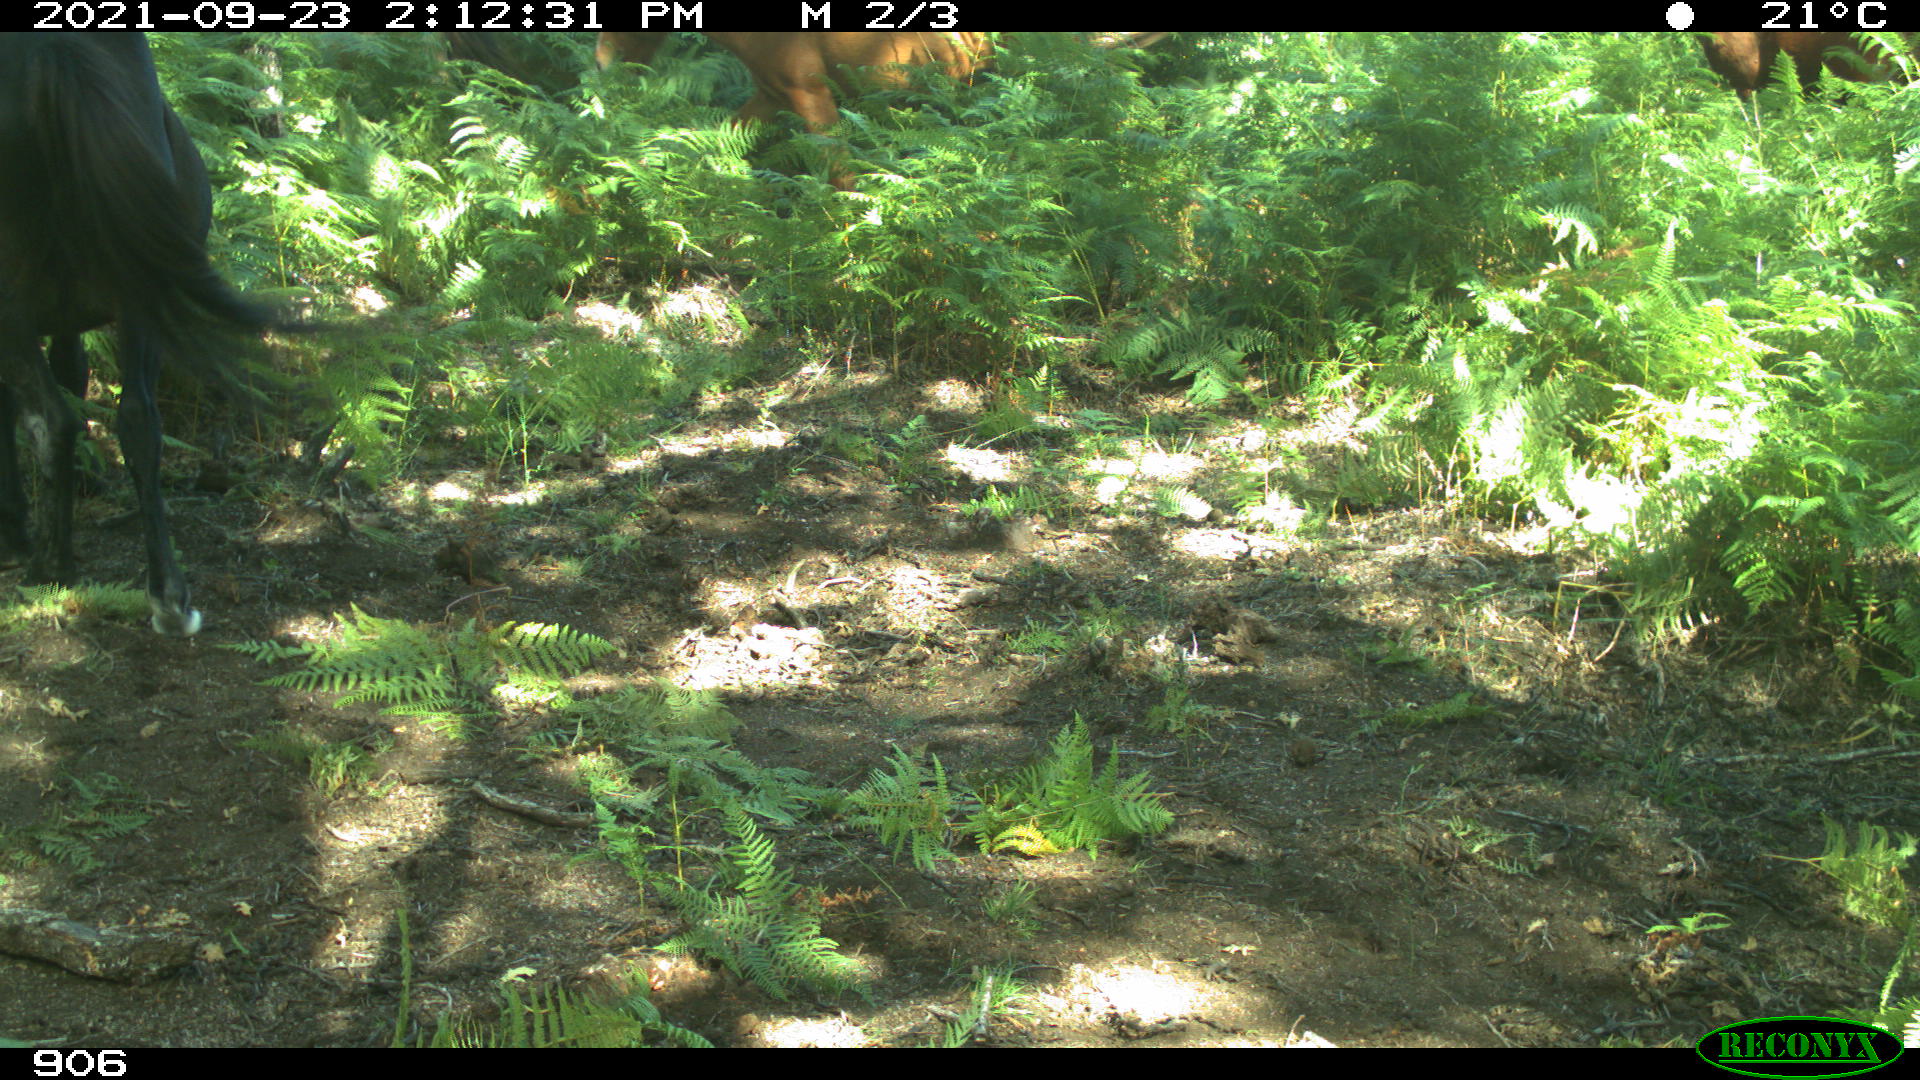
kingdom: Animalia
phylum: Chordata
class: Mammalia
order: Perissodactyla
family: Equidae
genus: Equus
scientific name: Equus caballus
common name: Horse
